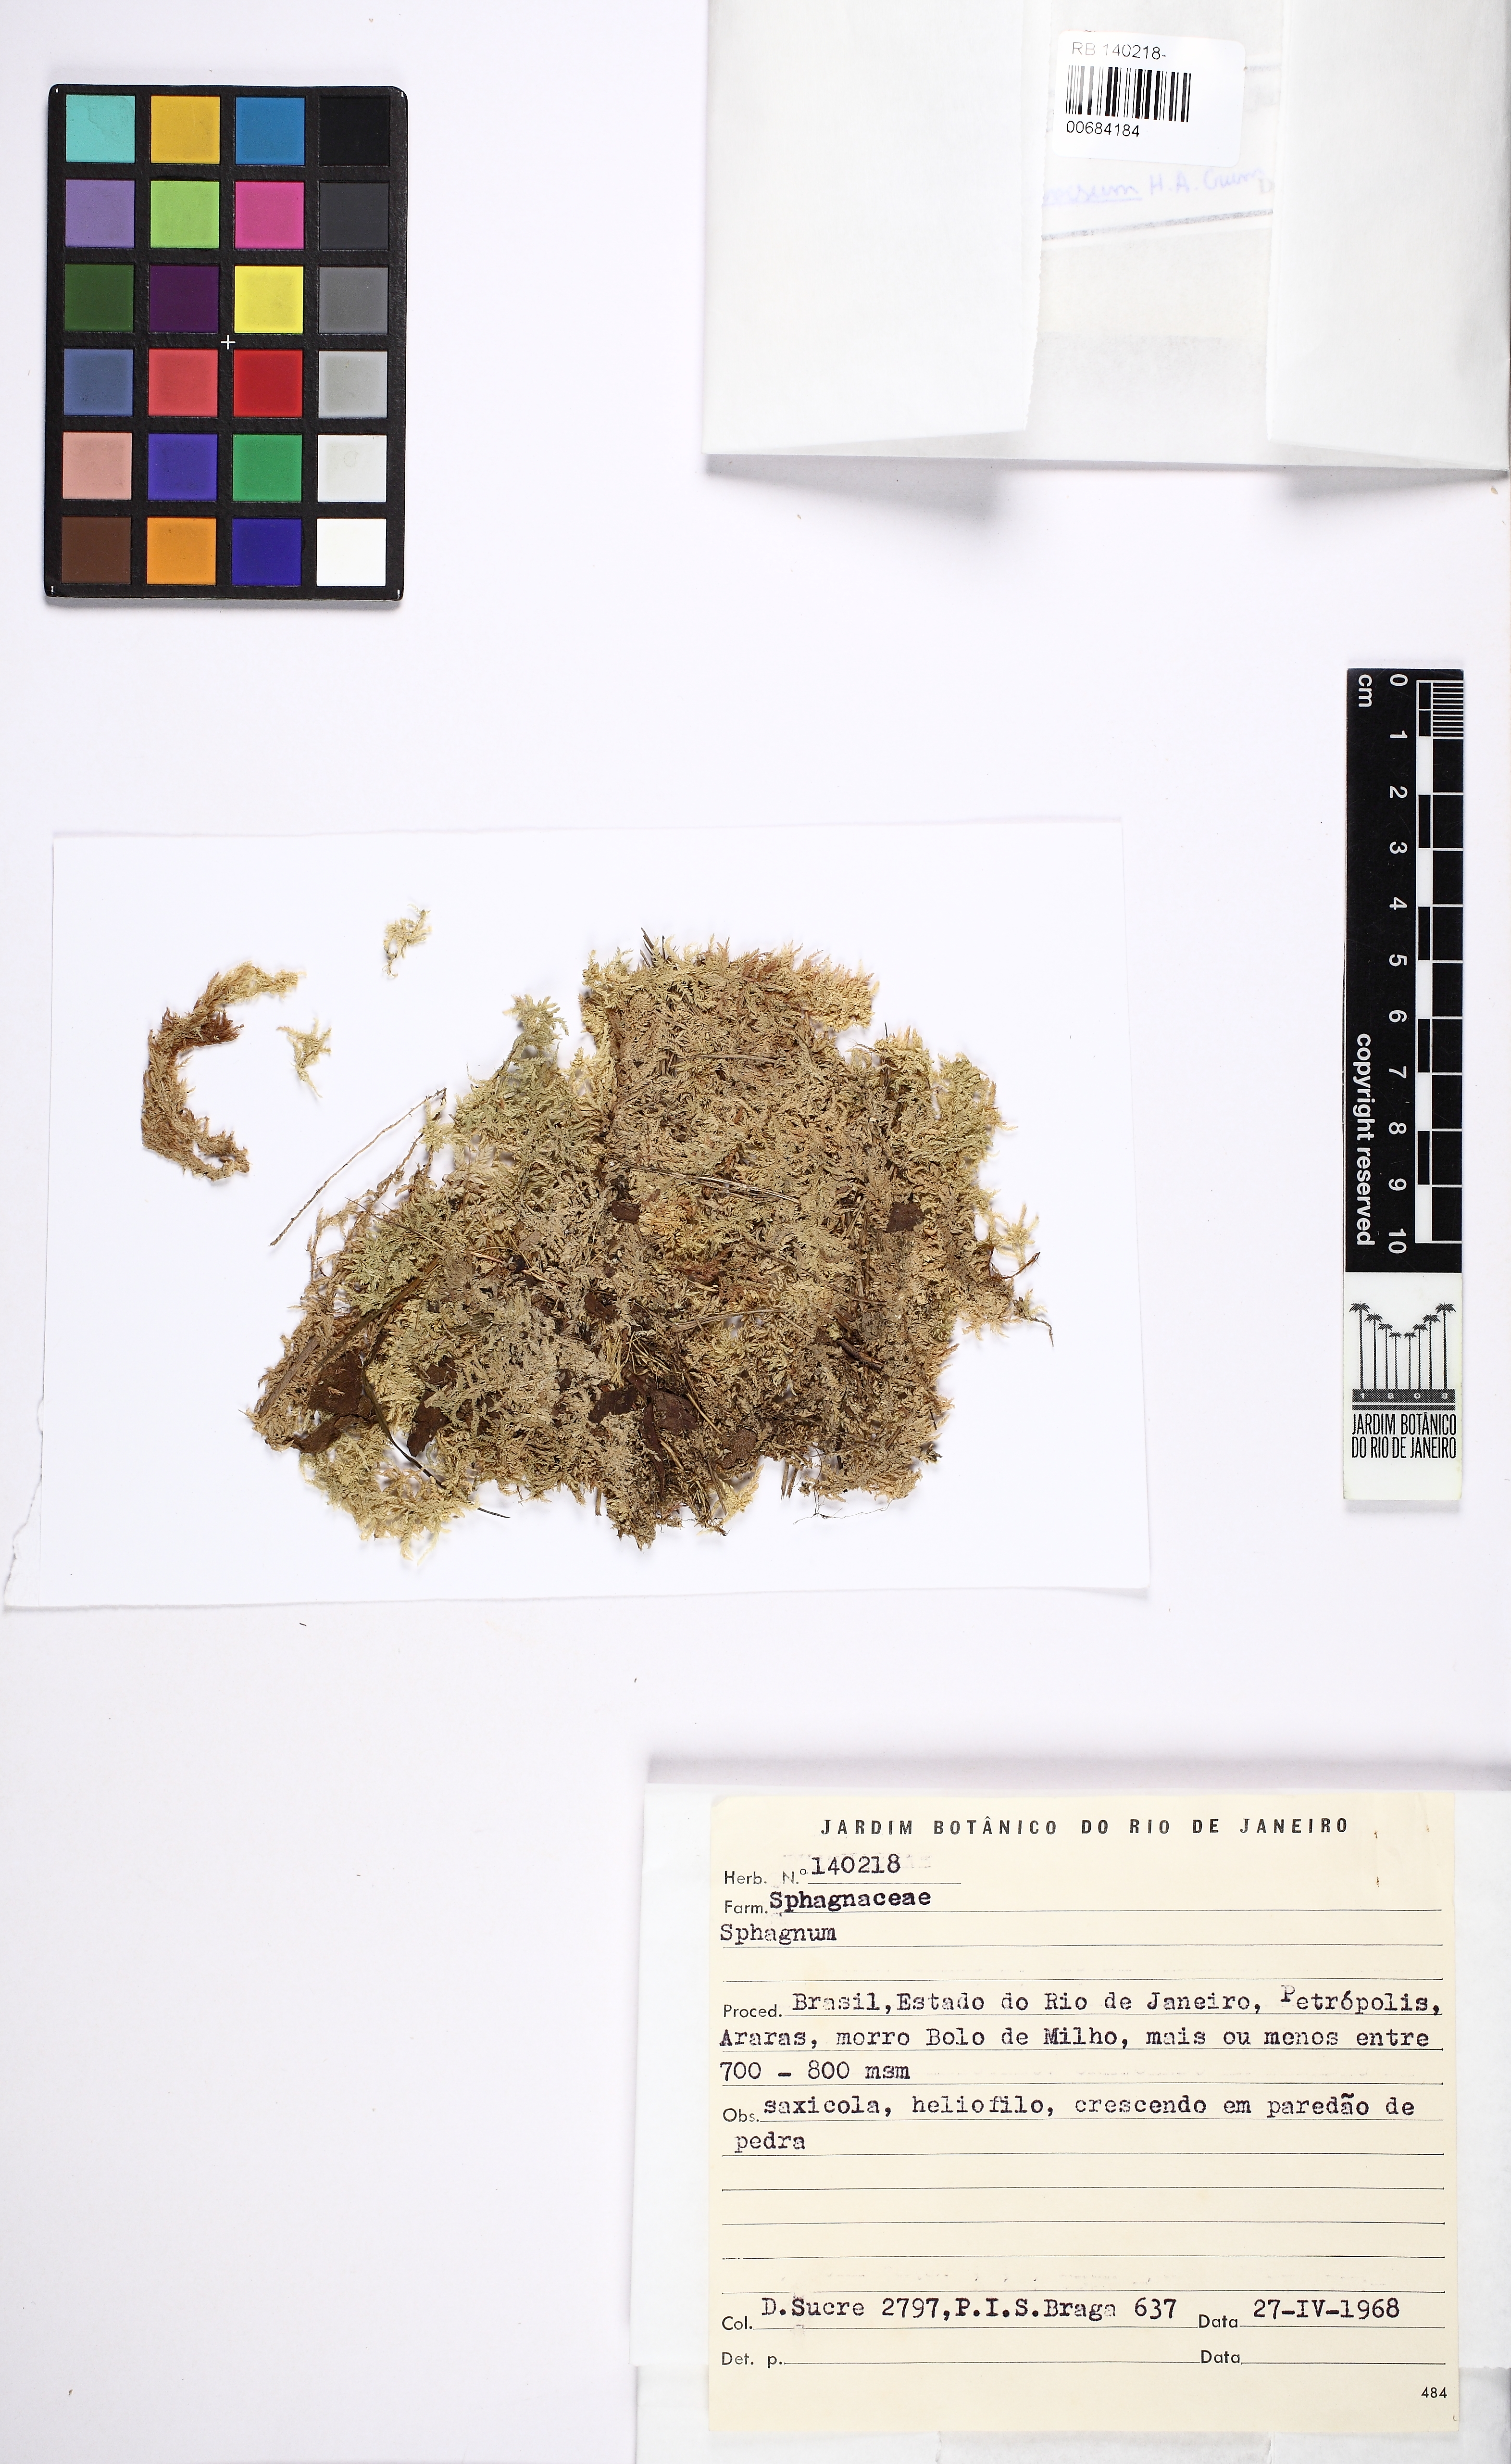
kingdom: Plantae
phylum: Bryophyta
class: Sphagnopsida
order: Sphagnales
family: Sphagnaceae
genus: Sphagnum
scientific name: Sphagnum divisum
